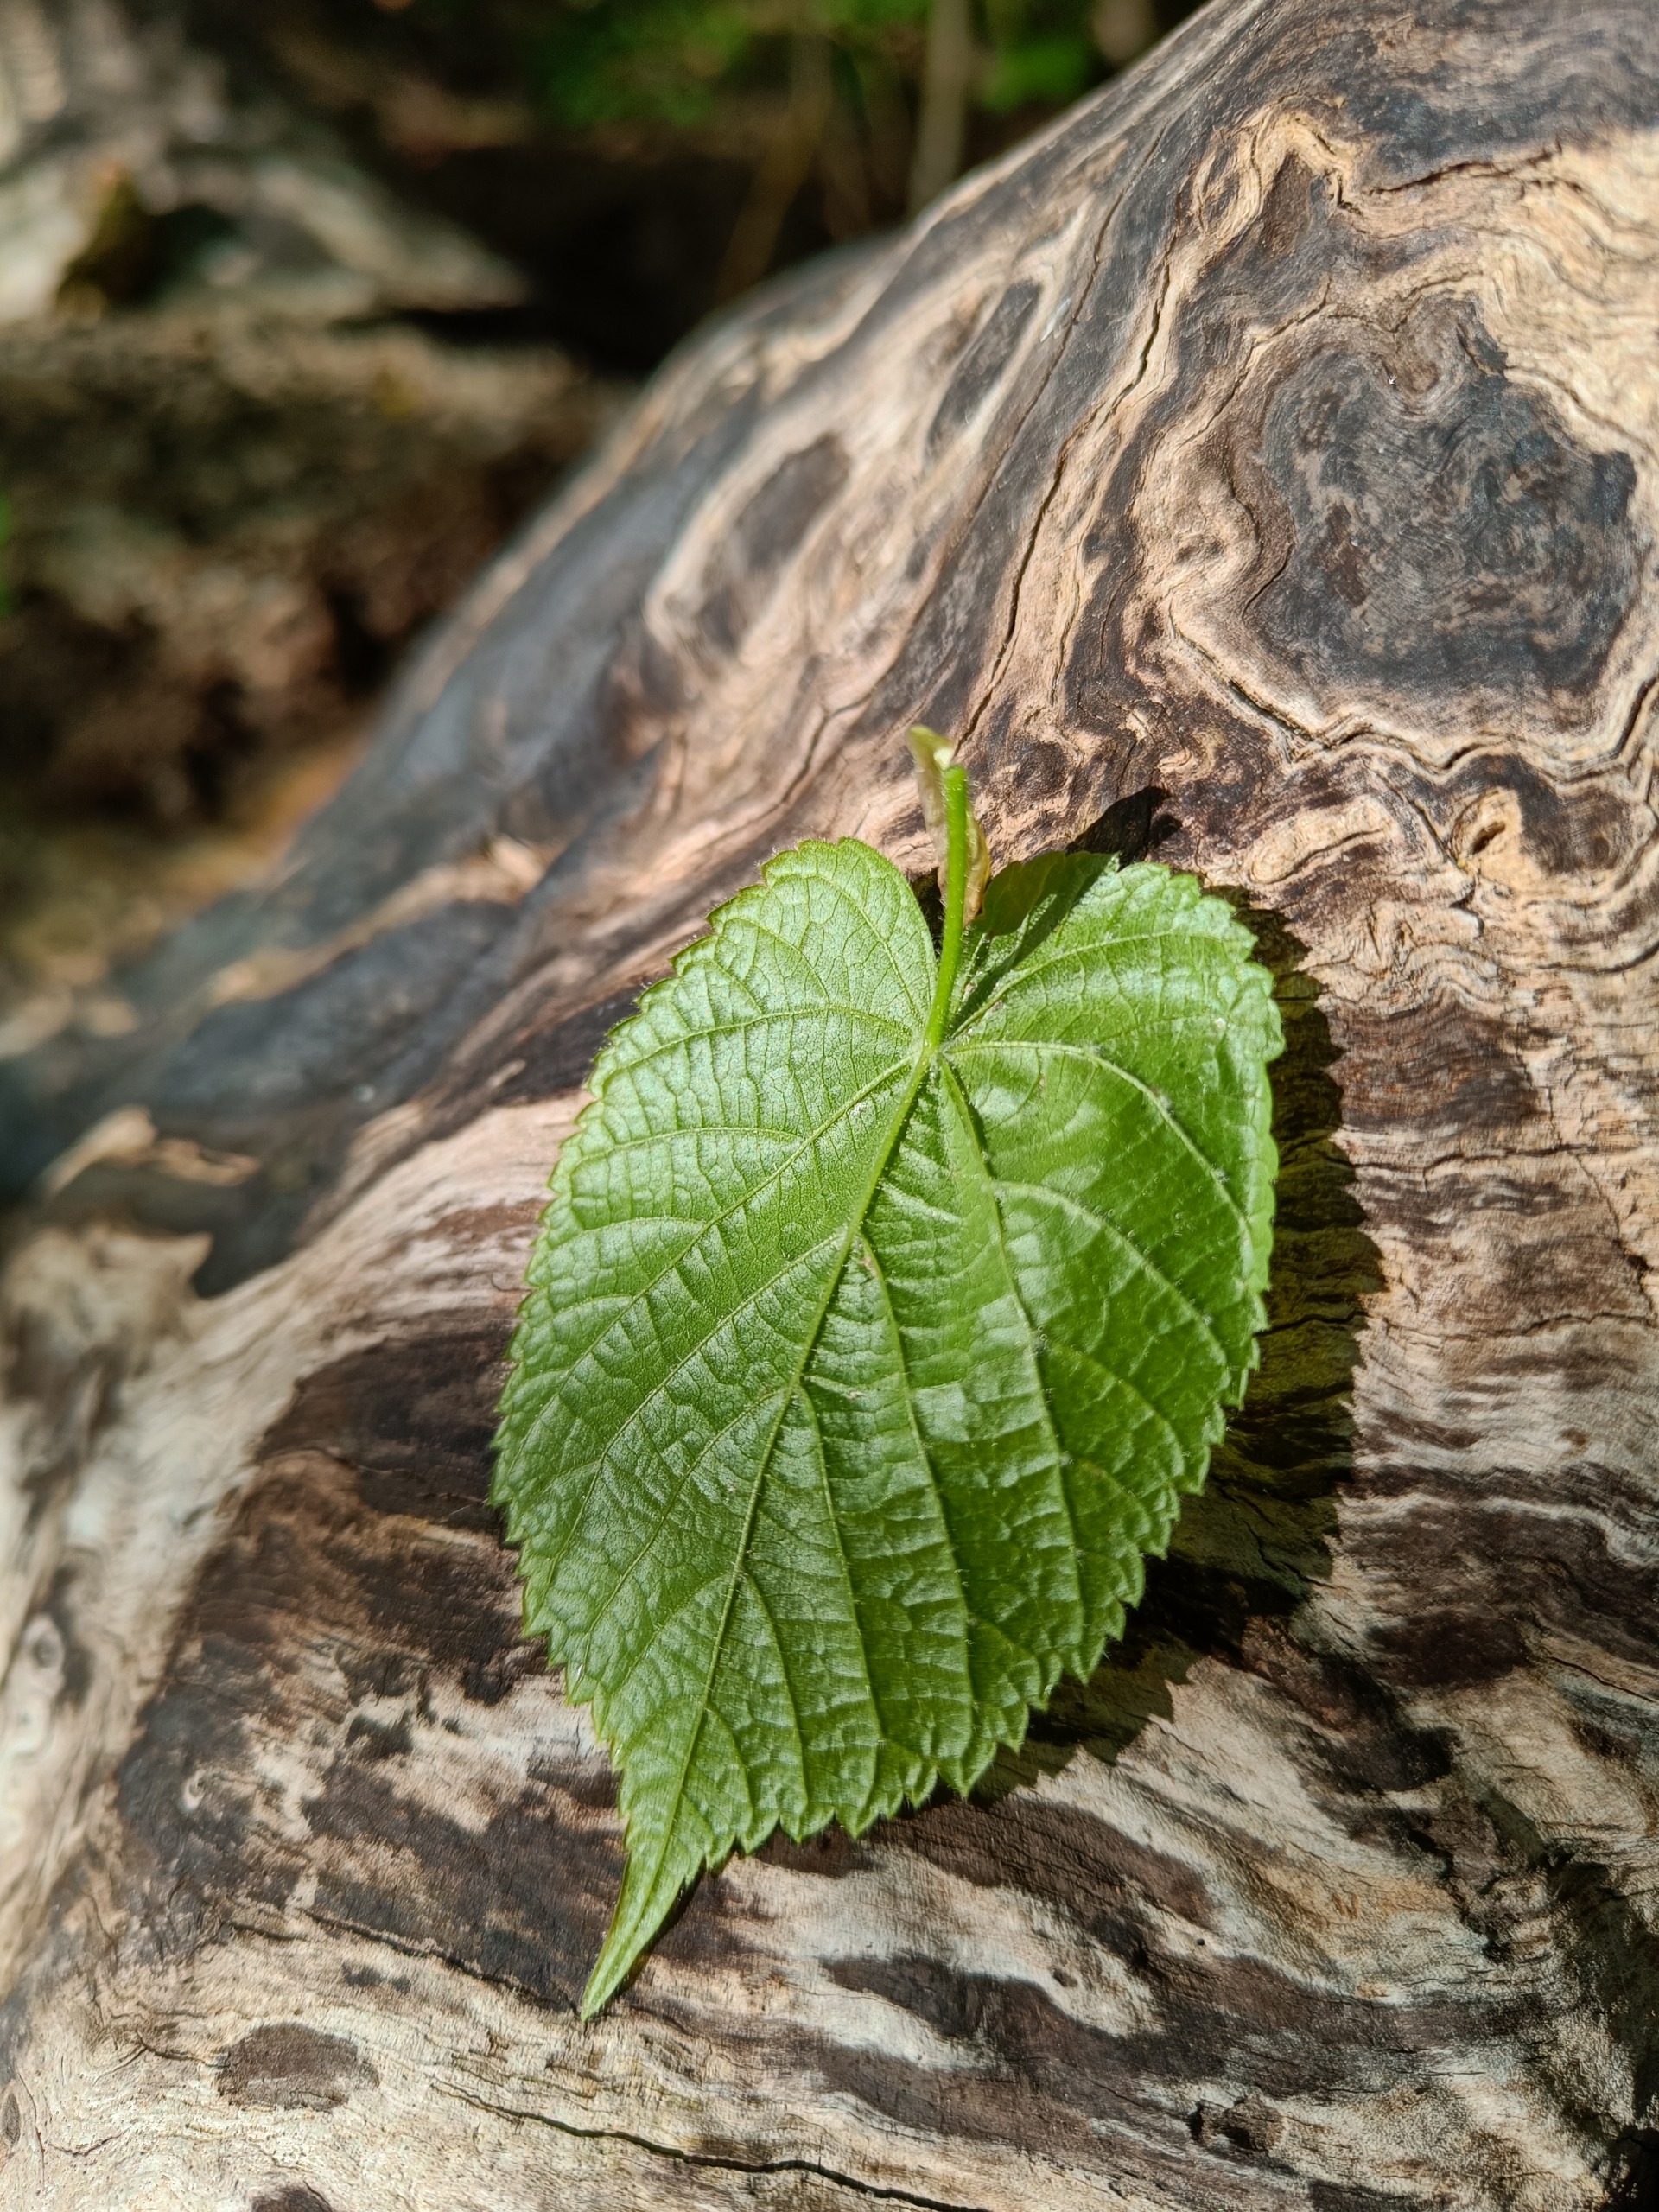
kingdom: Plantae
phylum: Tracheophyta
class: Magnoliopsida
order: Malvales
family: Malvaceae
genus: Tilia
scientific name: Tilia platyphyllos
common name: Storbladet lind
